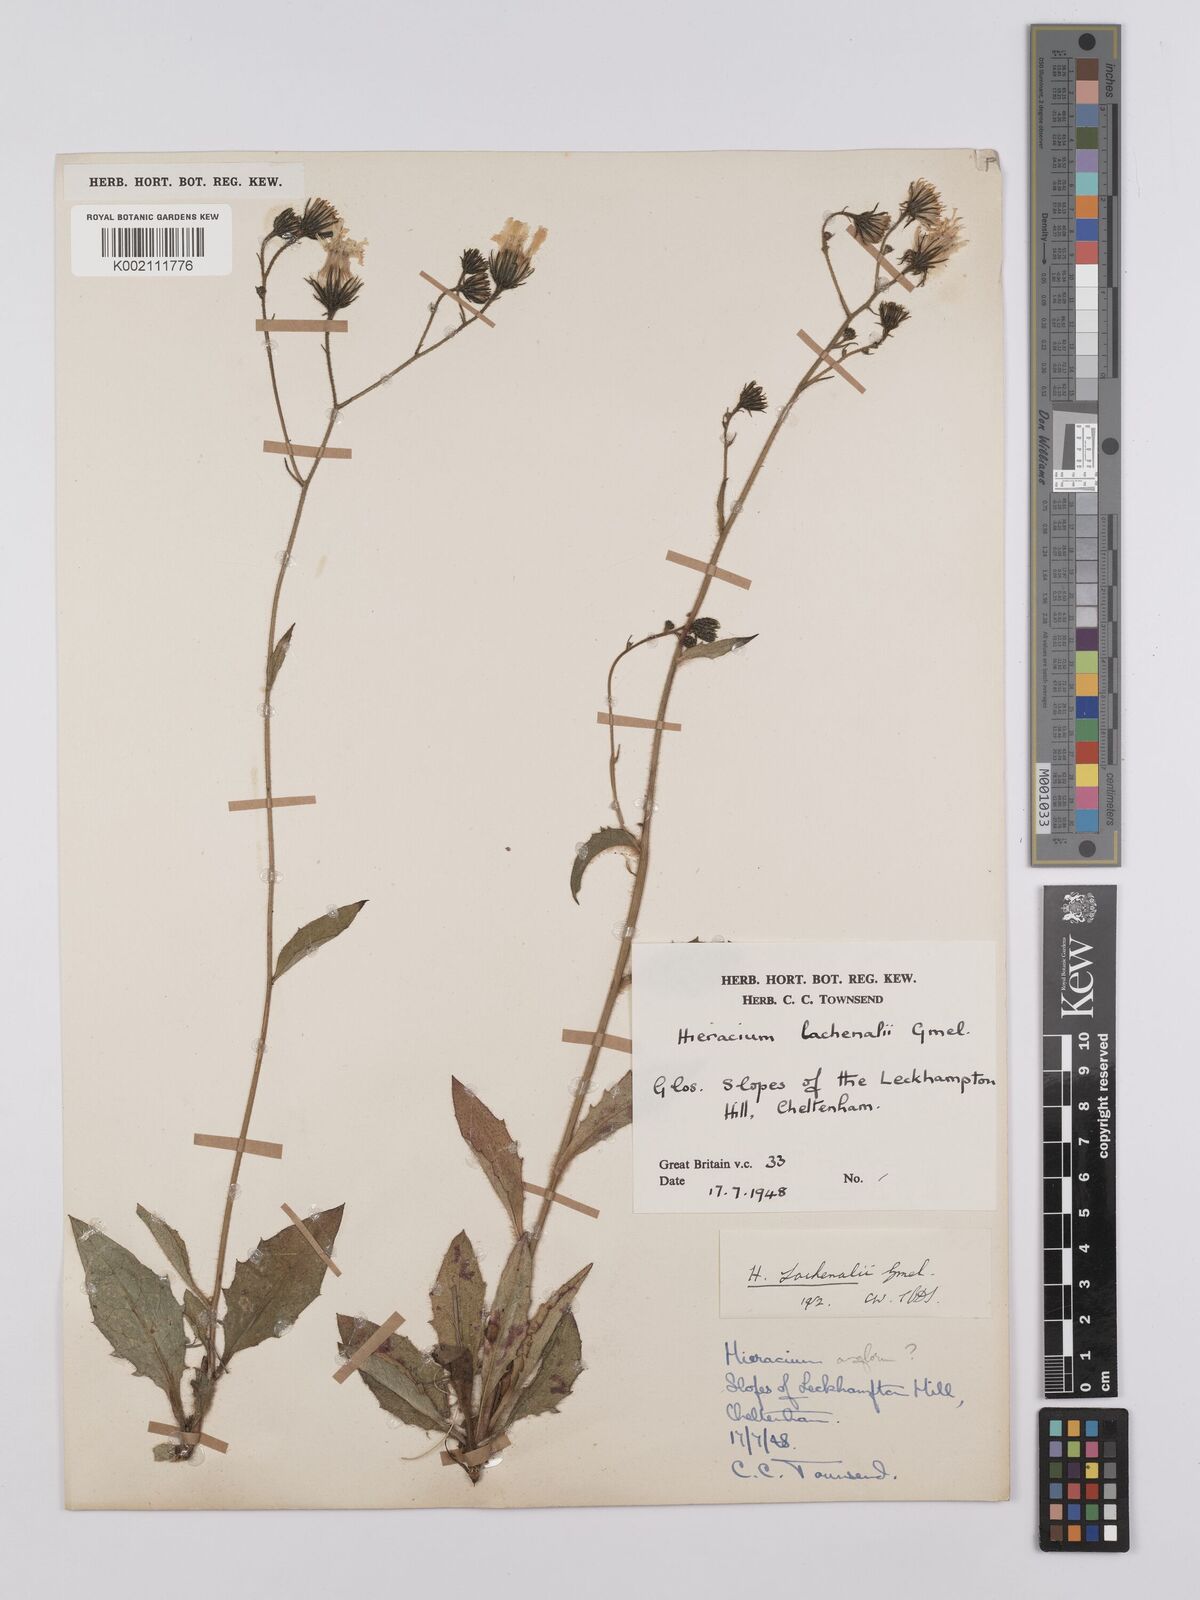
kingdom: Plantae
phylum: Tracheophyta
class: Magnoliopsida
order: Asterales
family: Asteraceae
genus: Hieracium
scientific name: Hieracium lachenalii
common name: Common hawkweed
